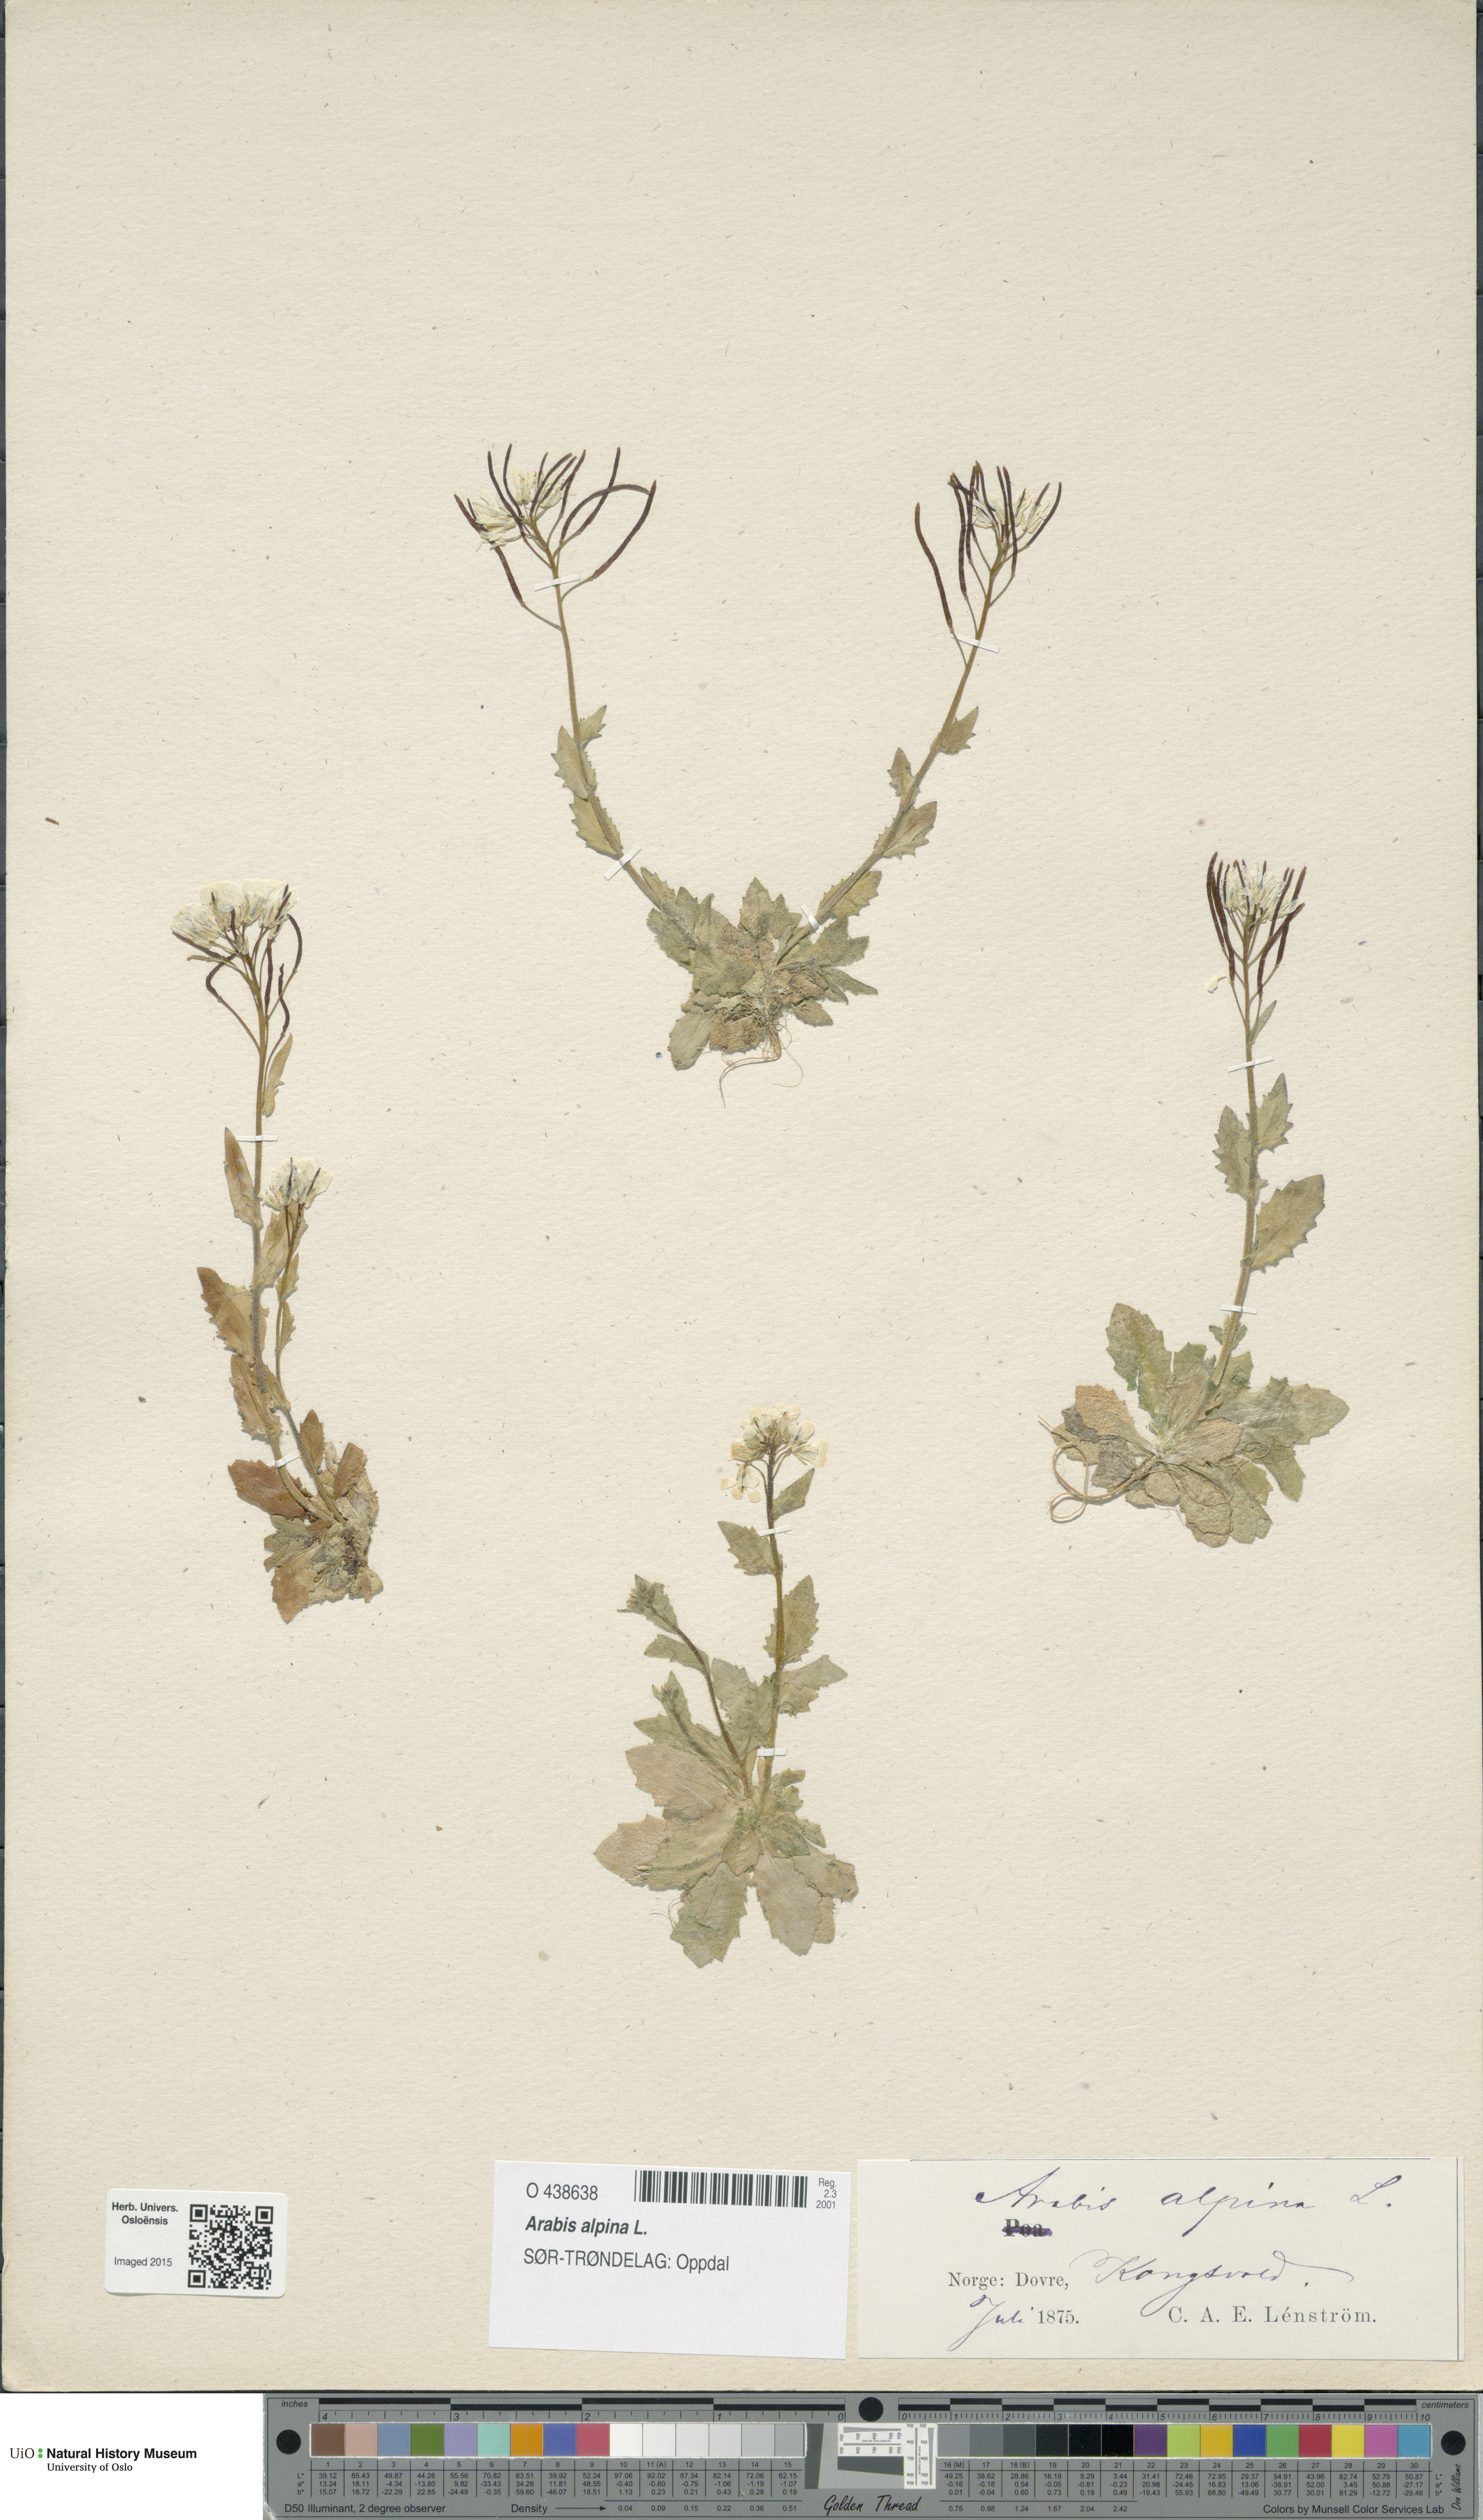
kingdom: Plantae
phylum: Tracheophyta
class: Magnoliopsida
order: Brassicales
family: Brassicaceae
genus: Arabis
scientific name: Arabis alpina
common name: Alpine rock-cress
